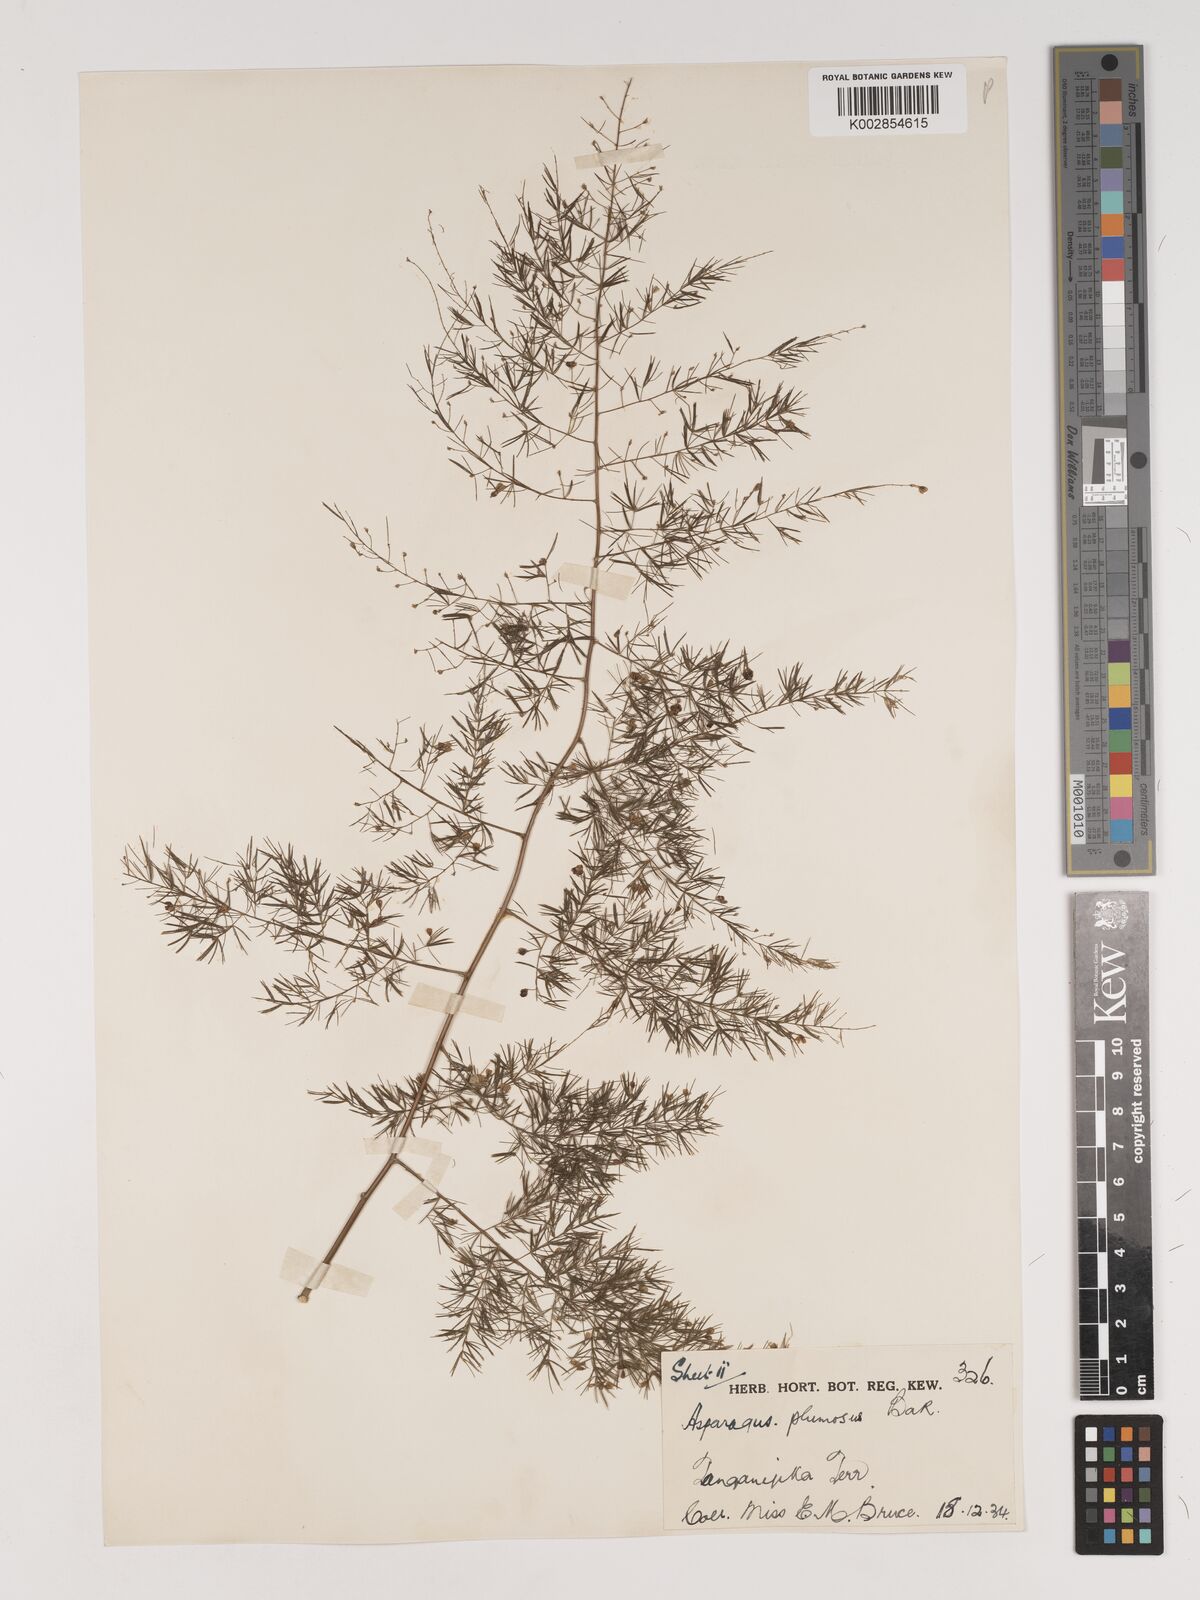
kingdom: Plantae
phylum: Tracheophyta
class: Liliopsida
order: Asparagales
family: Asparagaceae
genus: Asparagus
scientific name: Asparagus setaceus
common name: Common asparagus fern
